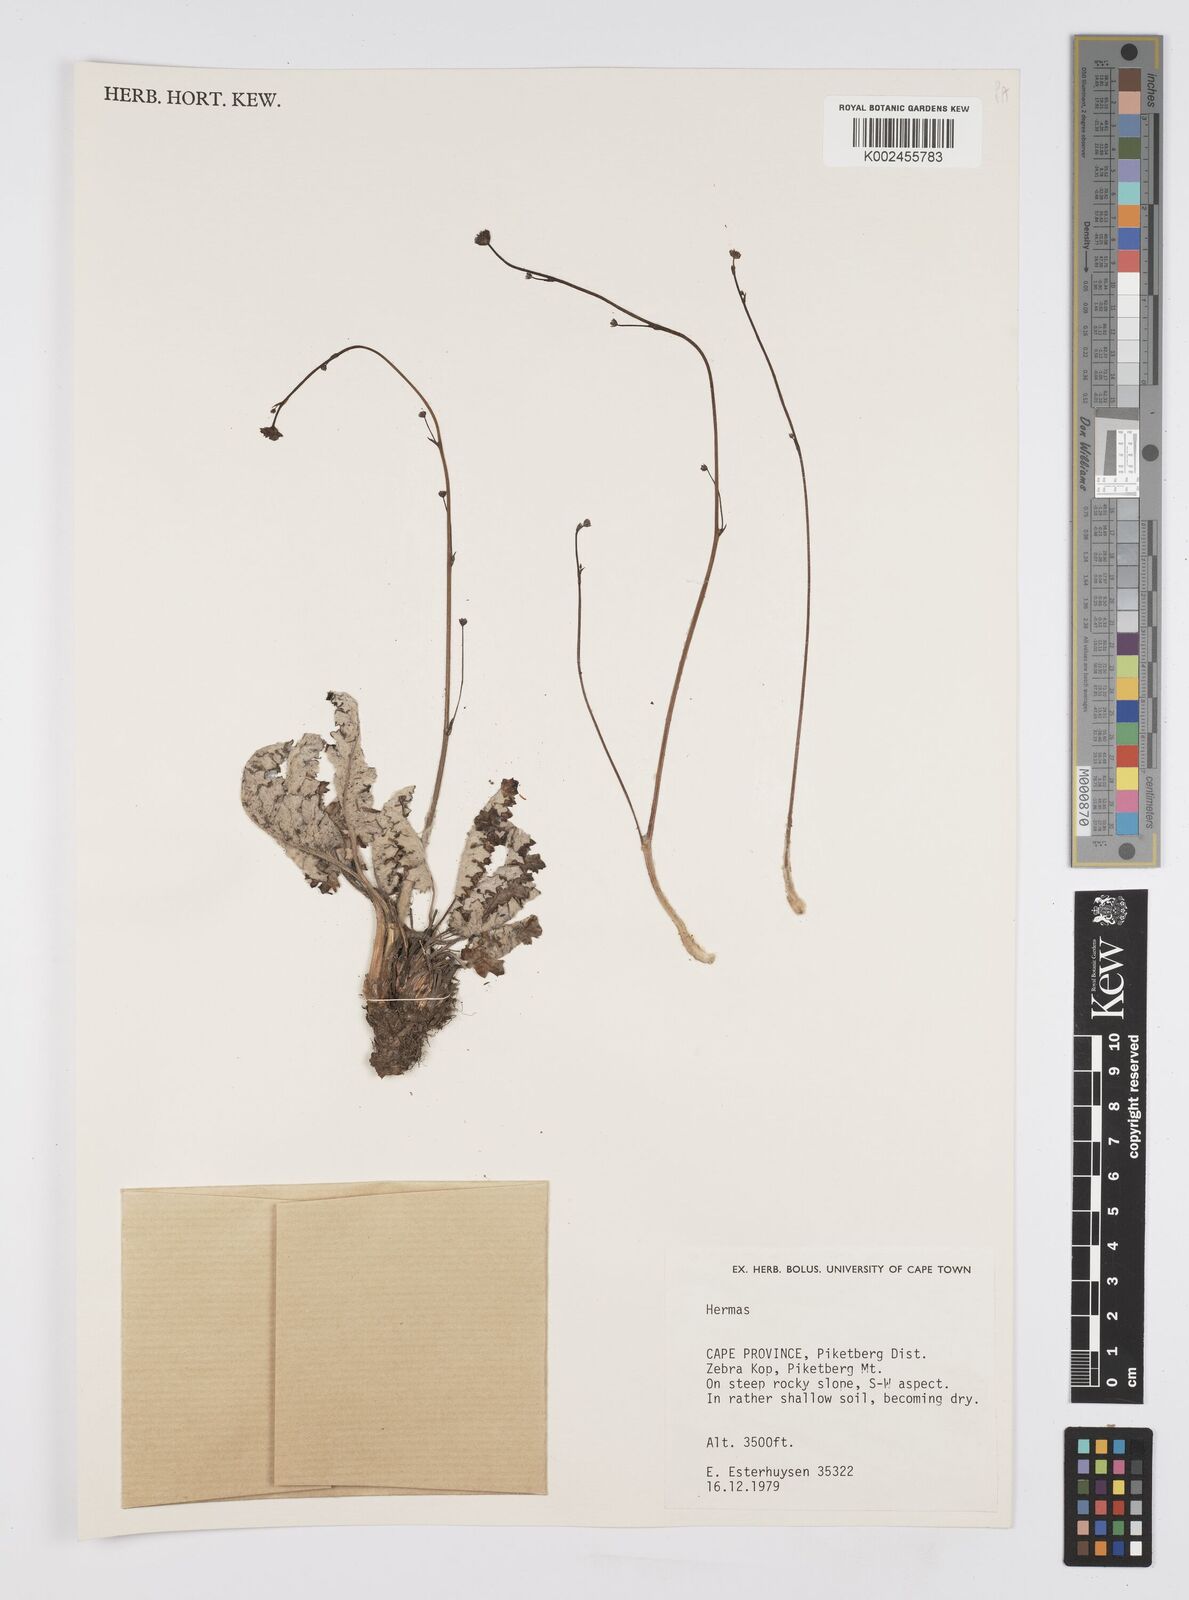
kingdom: Plantae
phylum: Tracheophyta
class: Magnoliopsida
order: Apiales
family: Apiaceae
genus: Hermas
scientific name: Hermas
